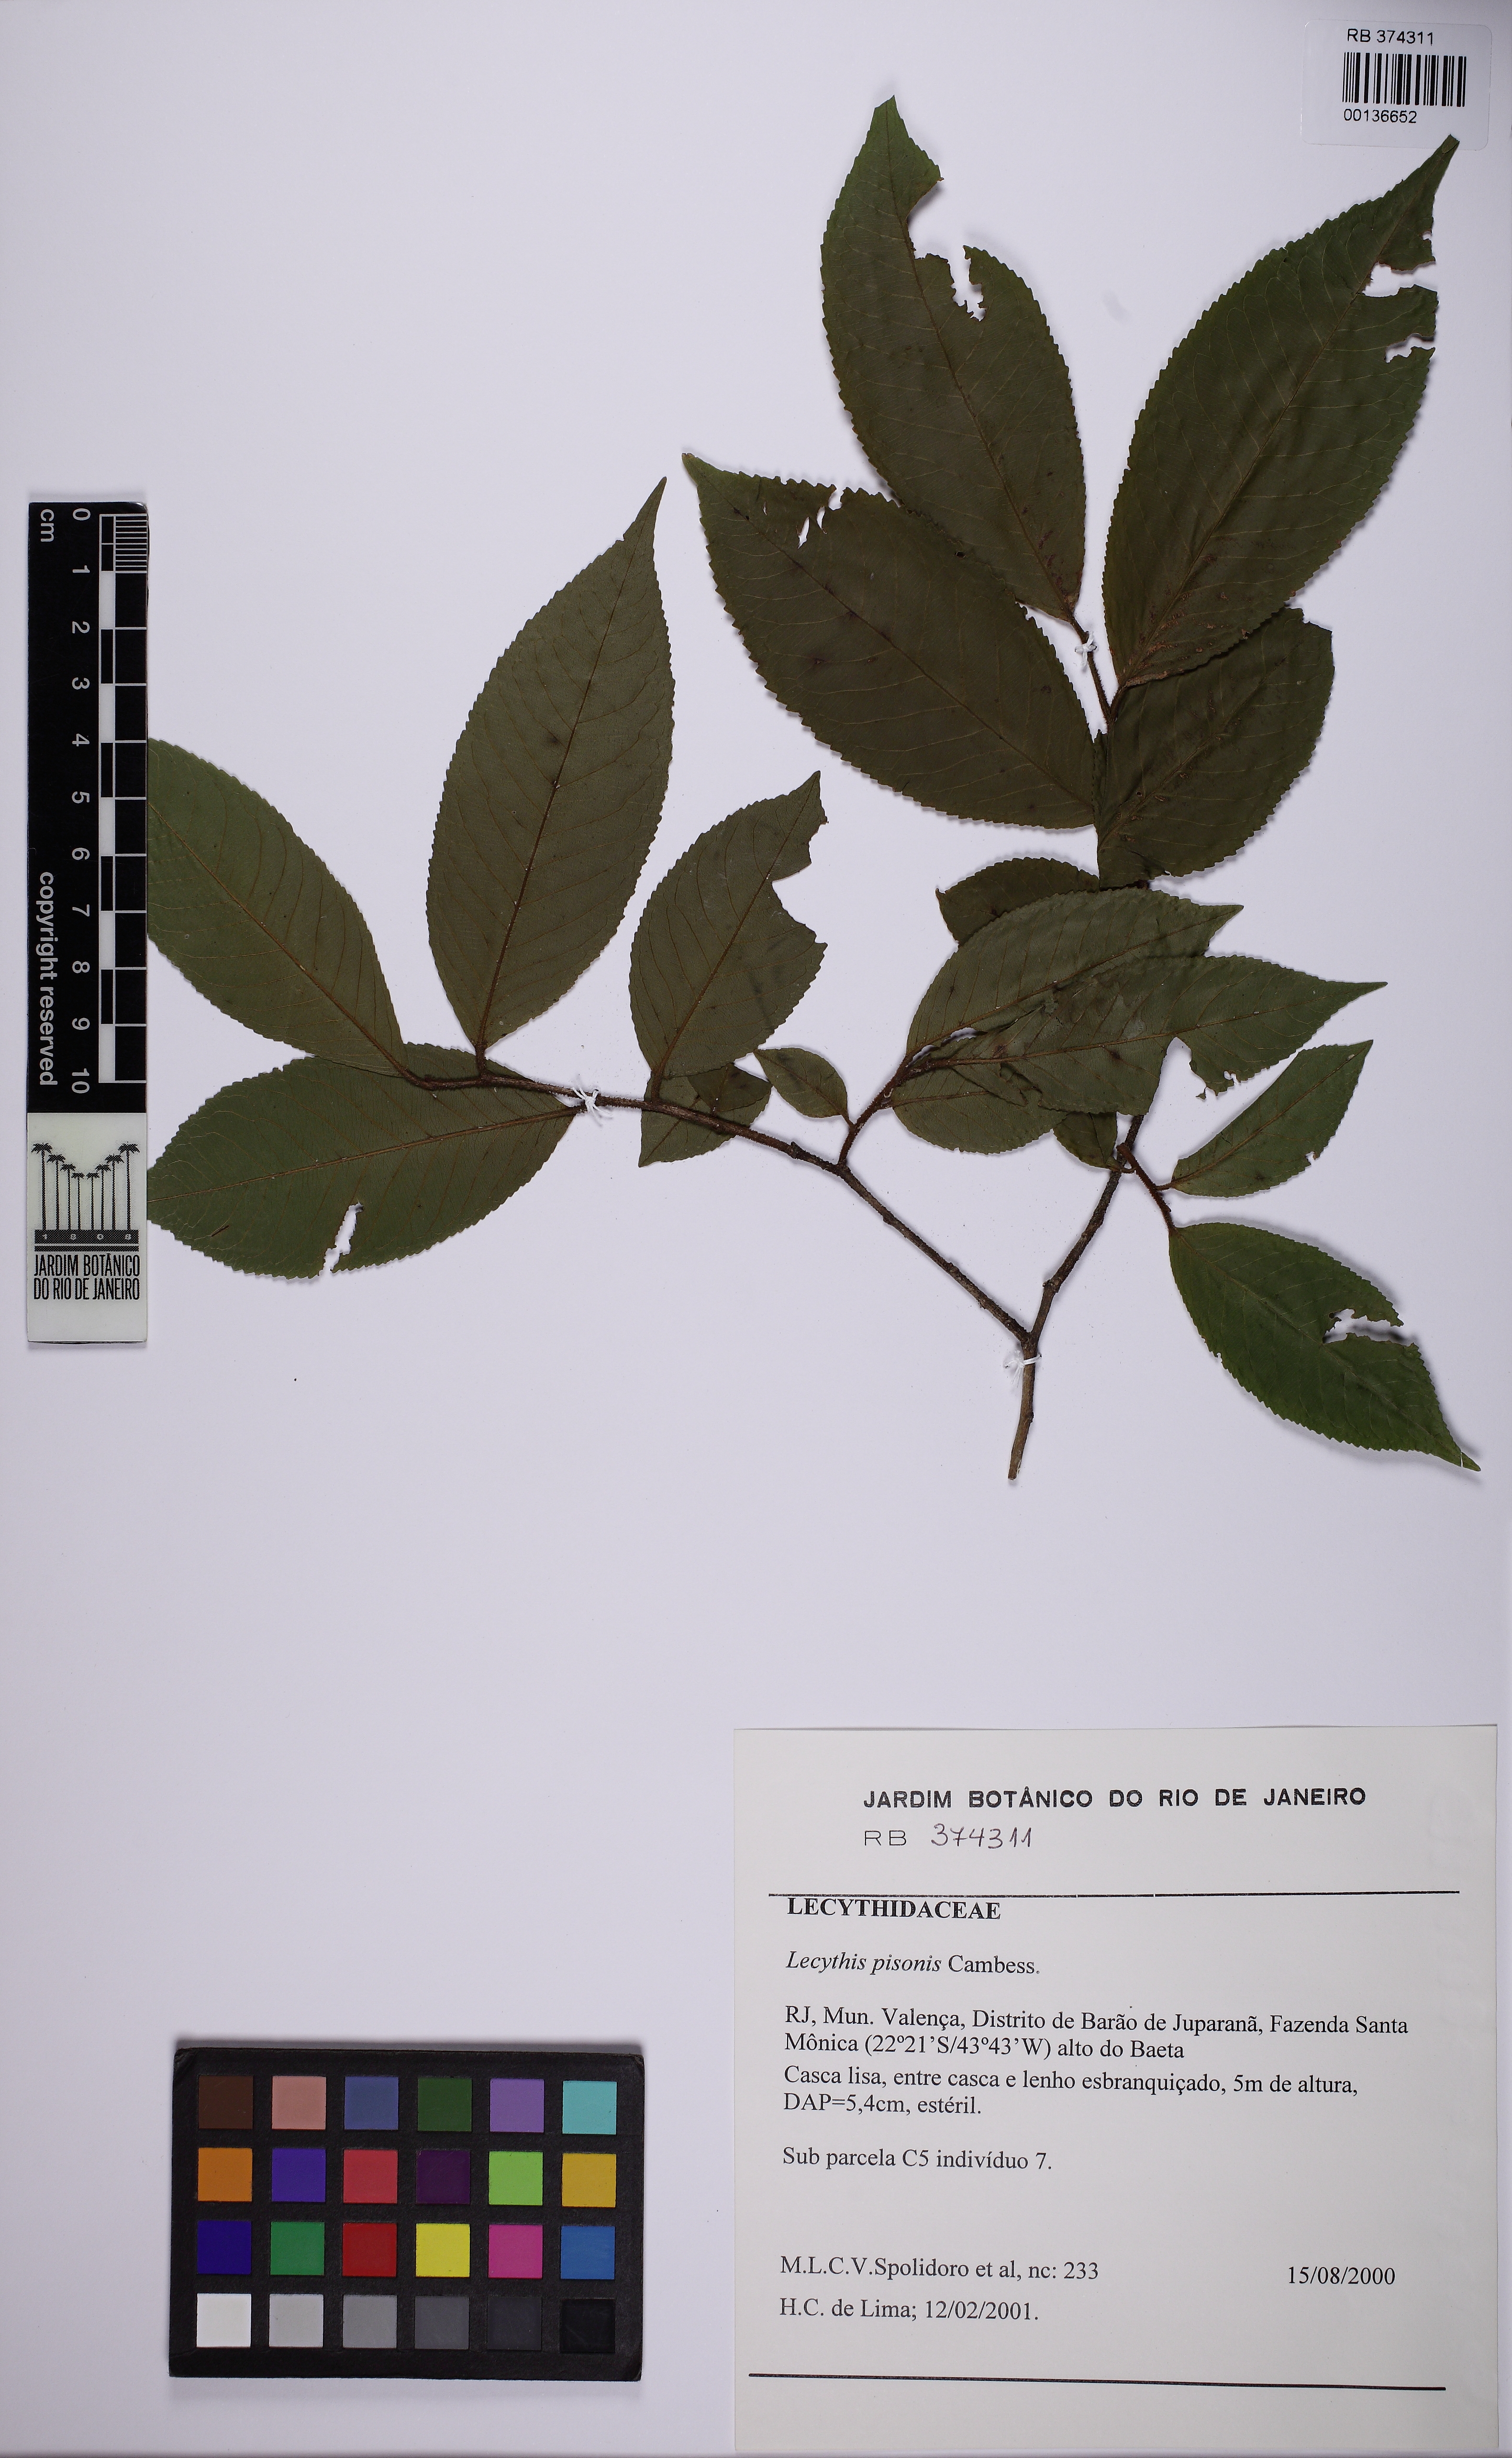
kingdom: Plantae
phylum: Tracheophyta
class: Magnoliopsida
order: Ericales
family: Lecythidaceae
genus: Lecythis
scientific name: Lecythis pisonis
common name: Paradise-nut
